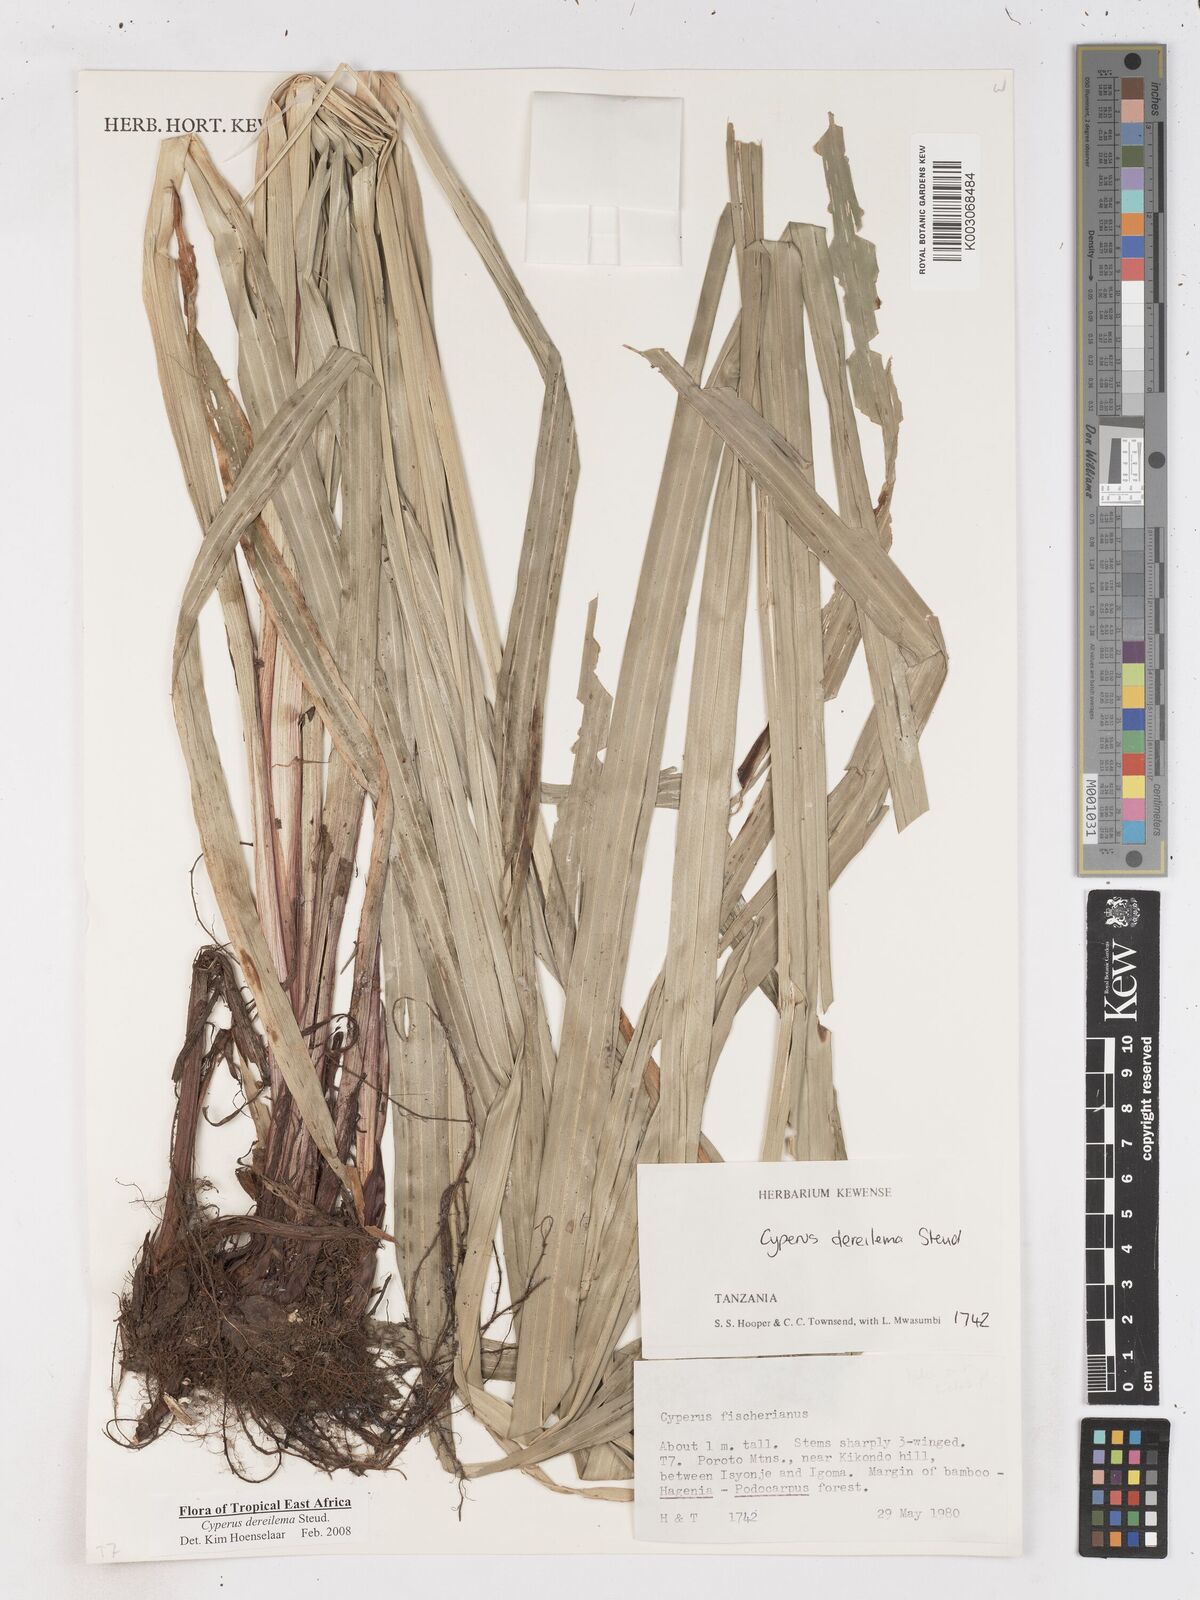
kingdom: Plantae
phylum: Tracheophyta
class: Liliopsida
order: Poales
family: Cyperaceae
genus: Cyperus
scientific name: Cyperus derreilema
